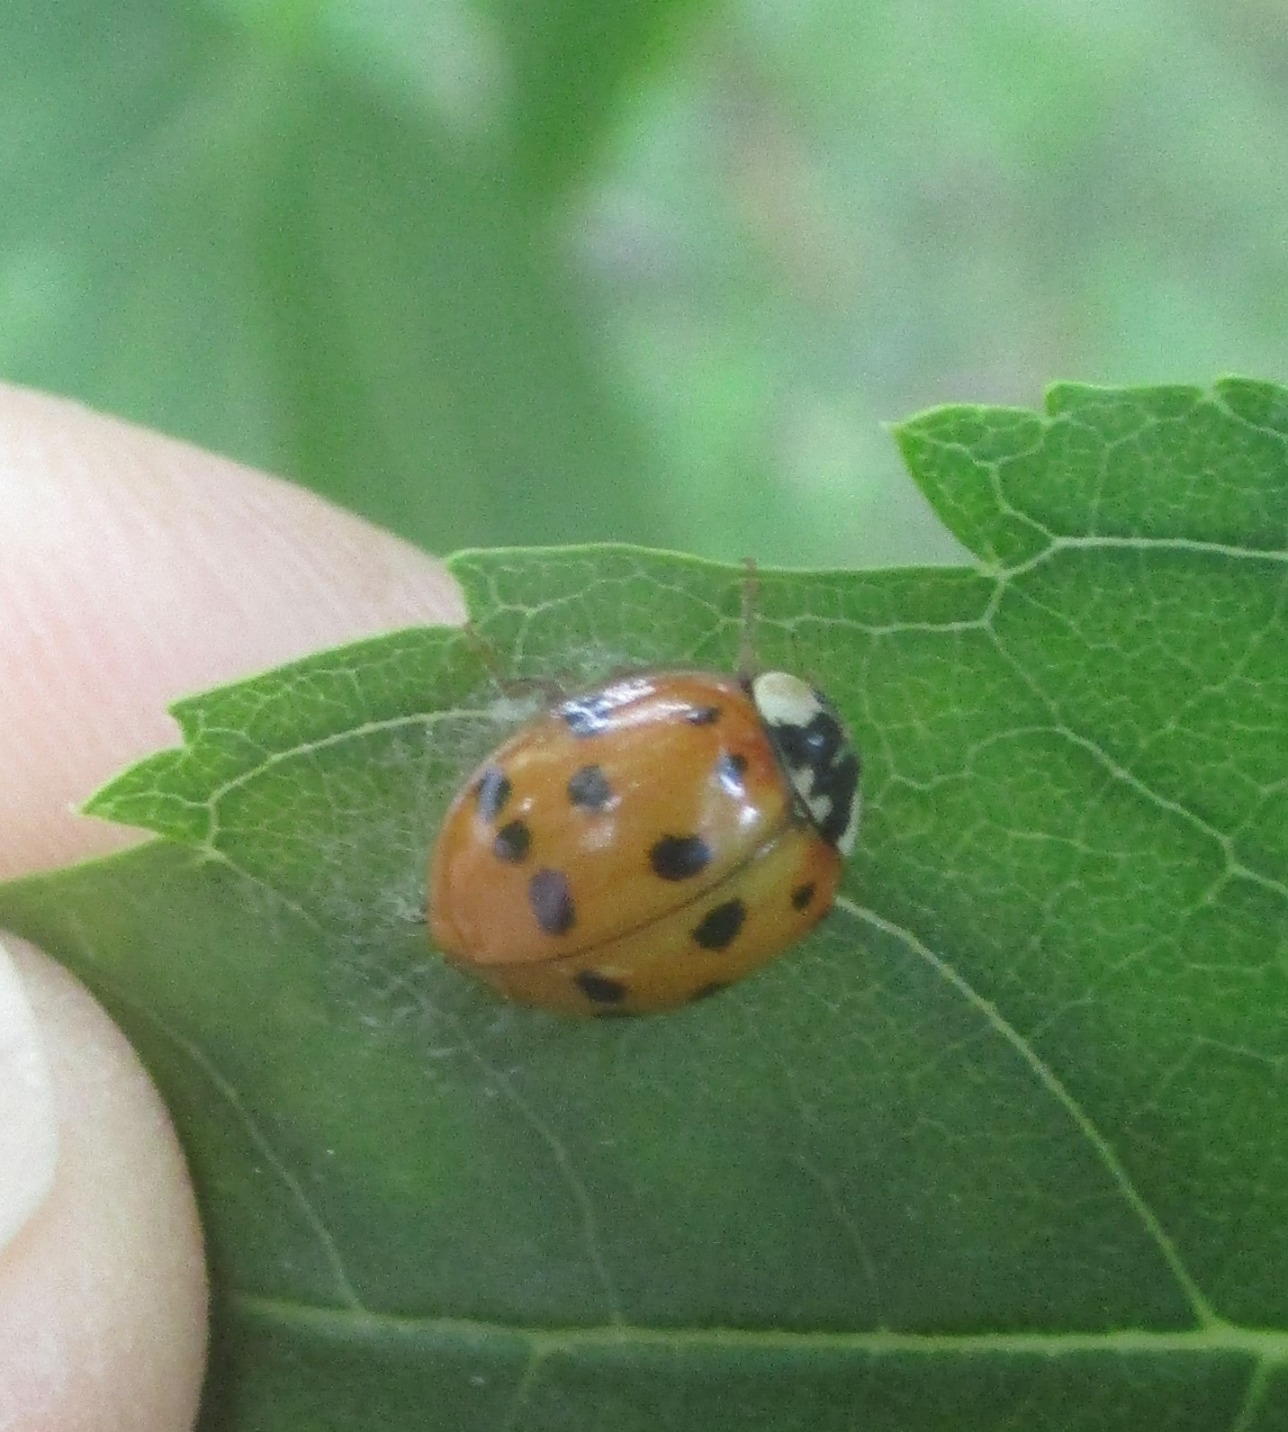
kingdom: Animalia
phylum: Arthropoda
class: Insecta
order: Coleoptera
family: Coccinellidae
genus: Harmonia
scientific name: Harmonia axyridis
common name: Harlekinmariehøne
